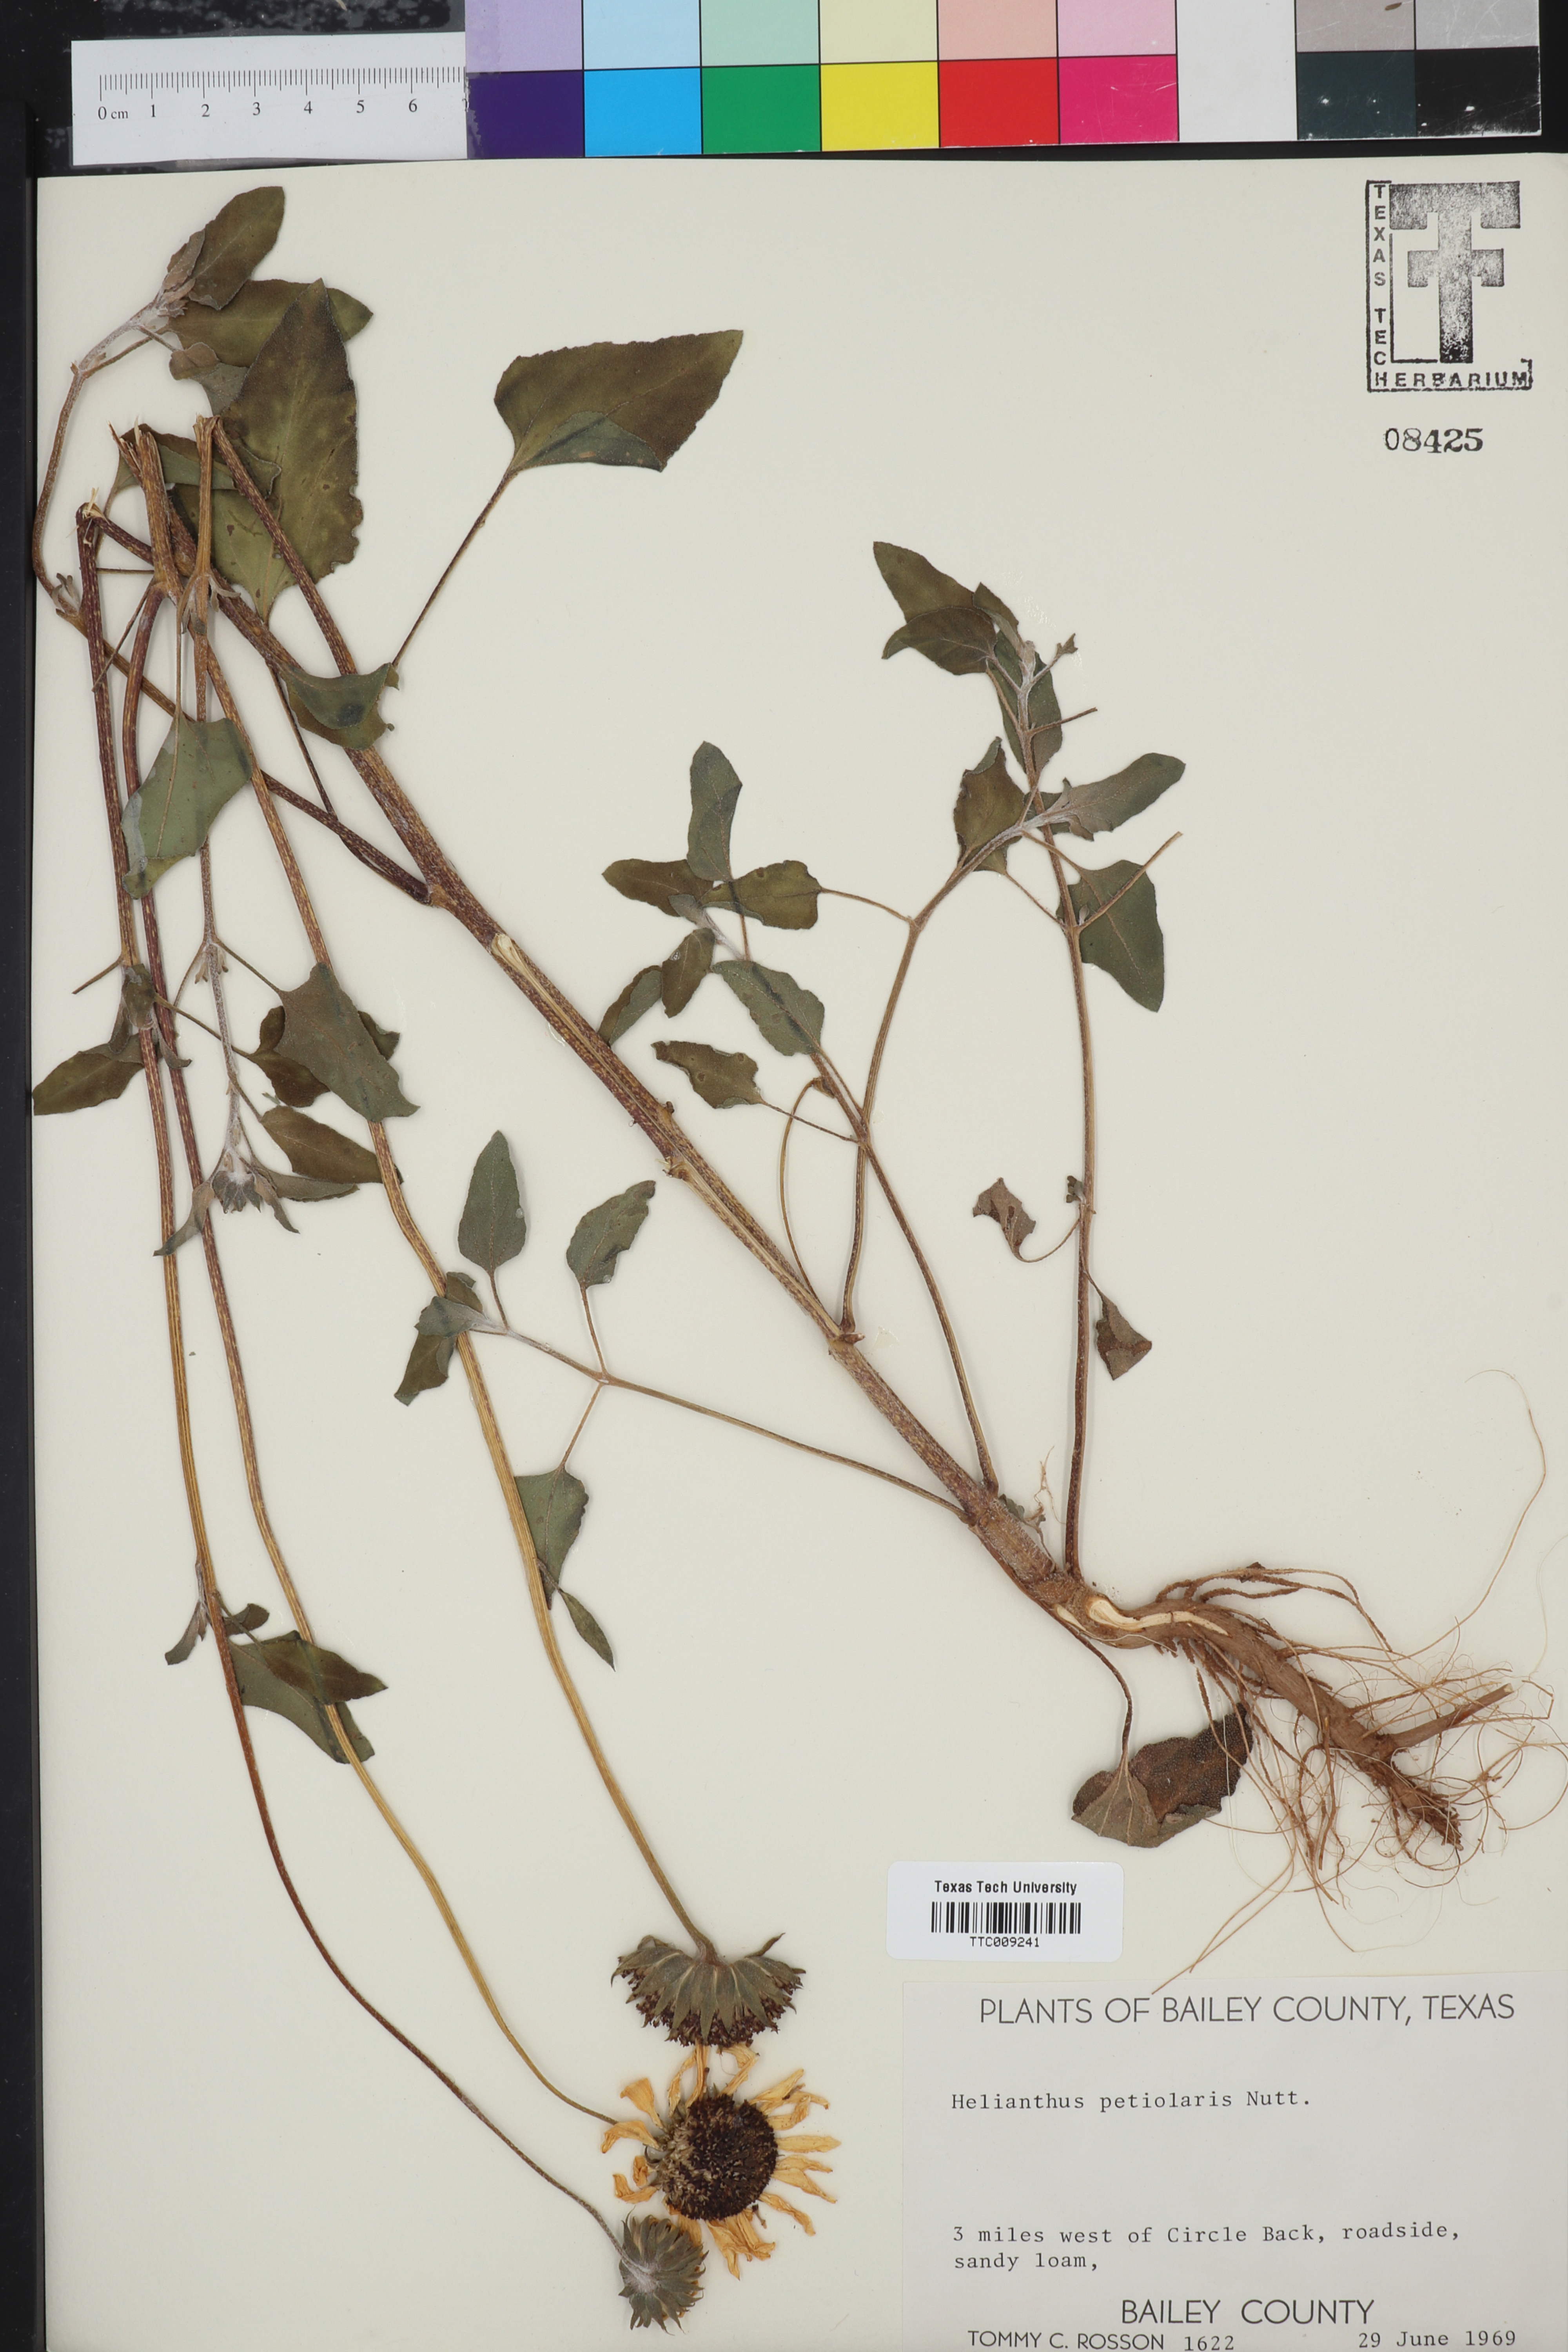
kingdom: Plantae
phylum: Tracheophyta
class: Magnoliopsida
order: Asterales
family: Asteraceae
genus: Helianthus
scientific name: Helianthus petiolaris
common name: Lesser sunflower
